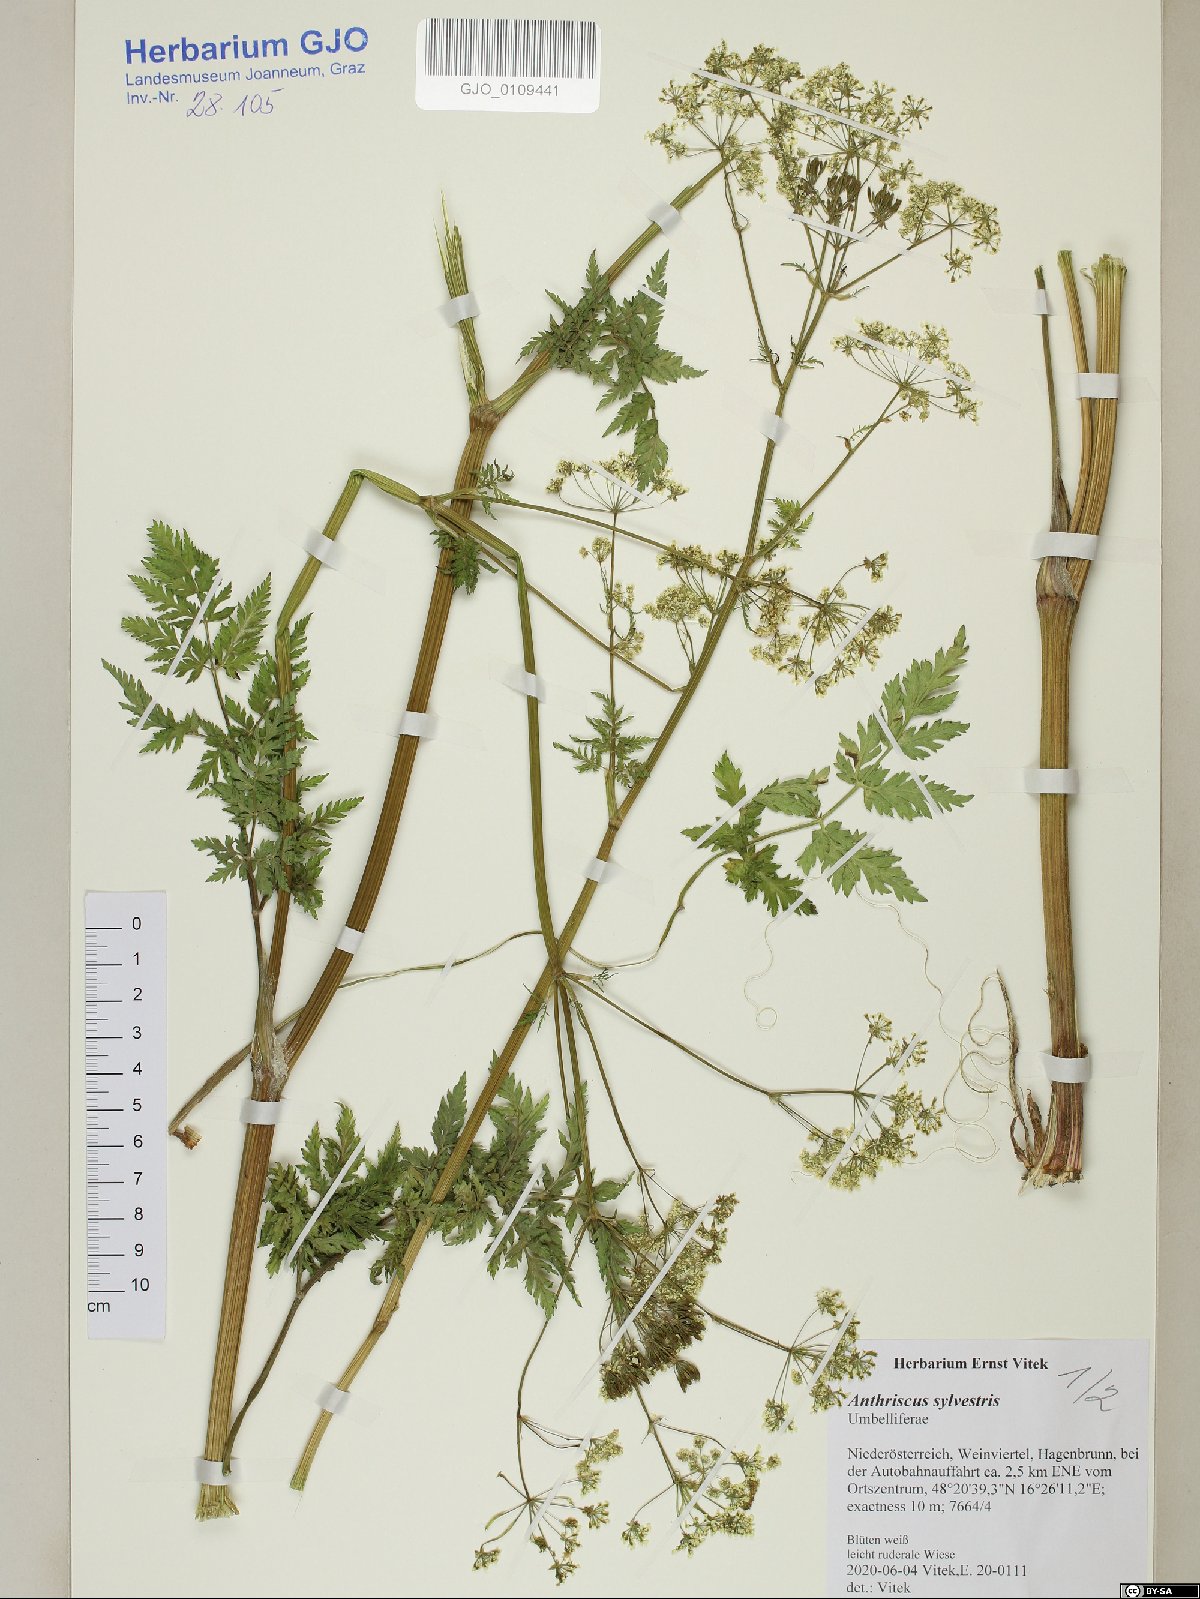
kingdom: Plantae
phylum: Tracheophyta
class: Magnoliopsida
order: Apiales
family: Apiaceae
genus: Anthriscus
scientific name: Anthriscus sylvestris
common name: Cow parsley
